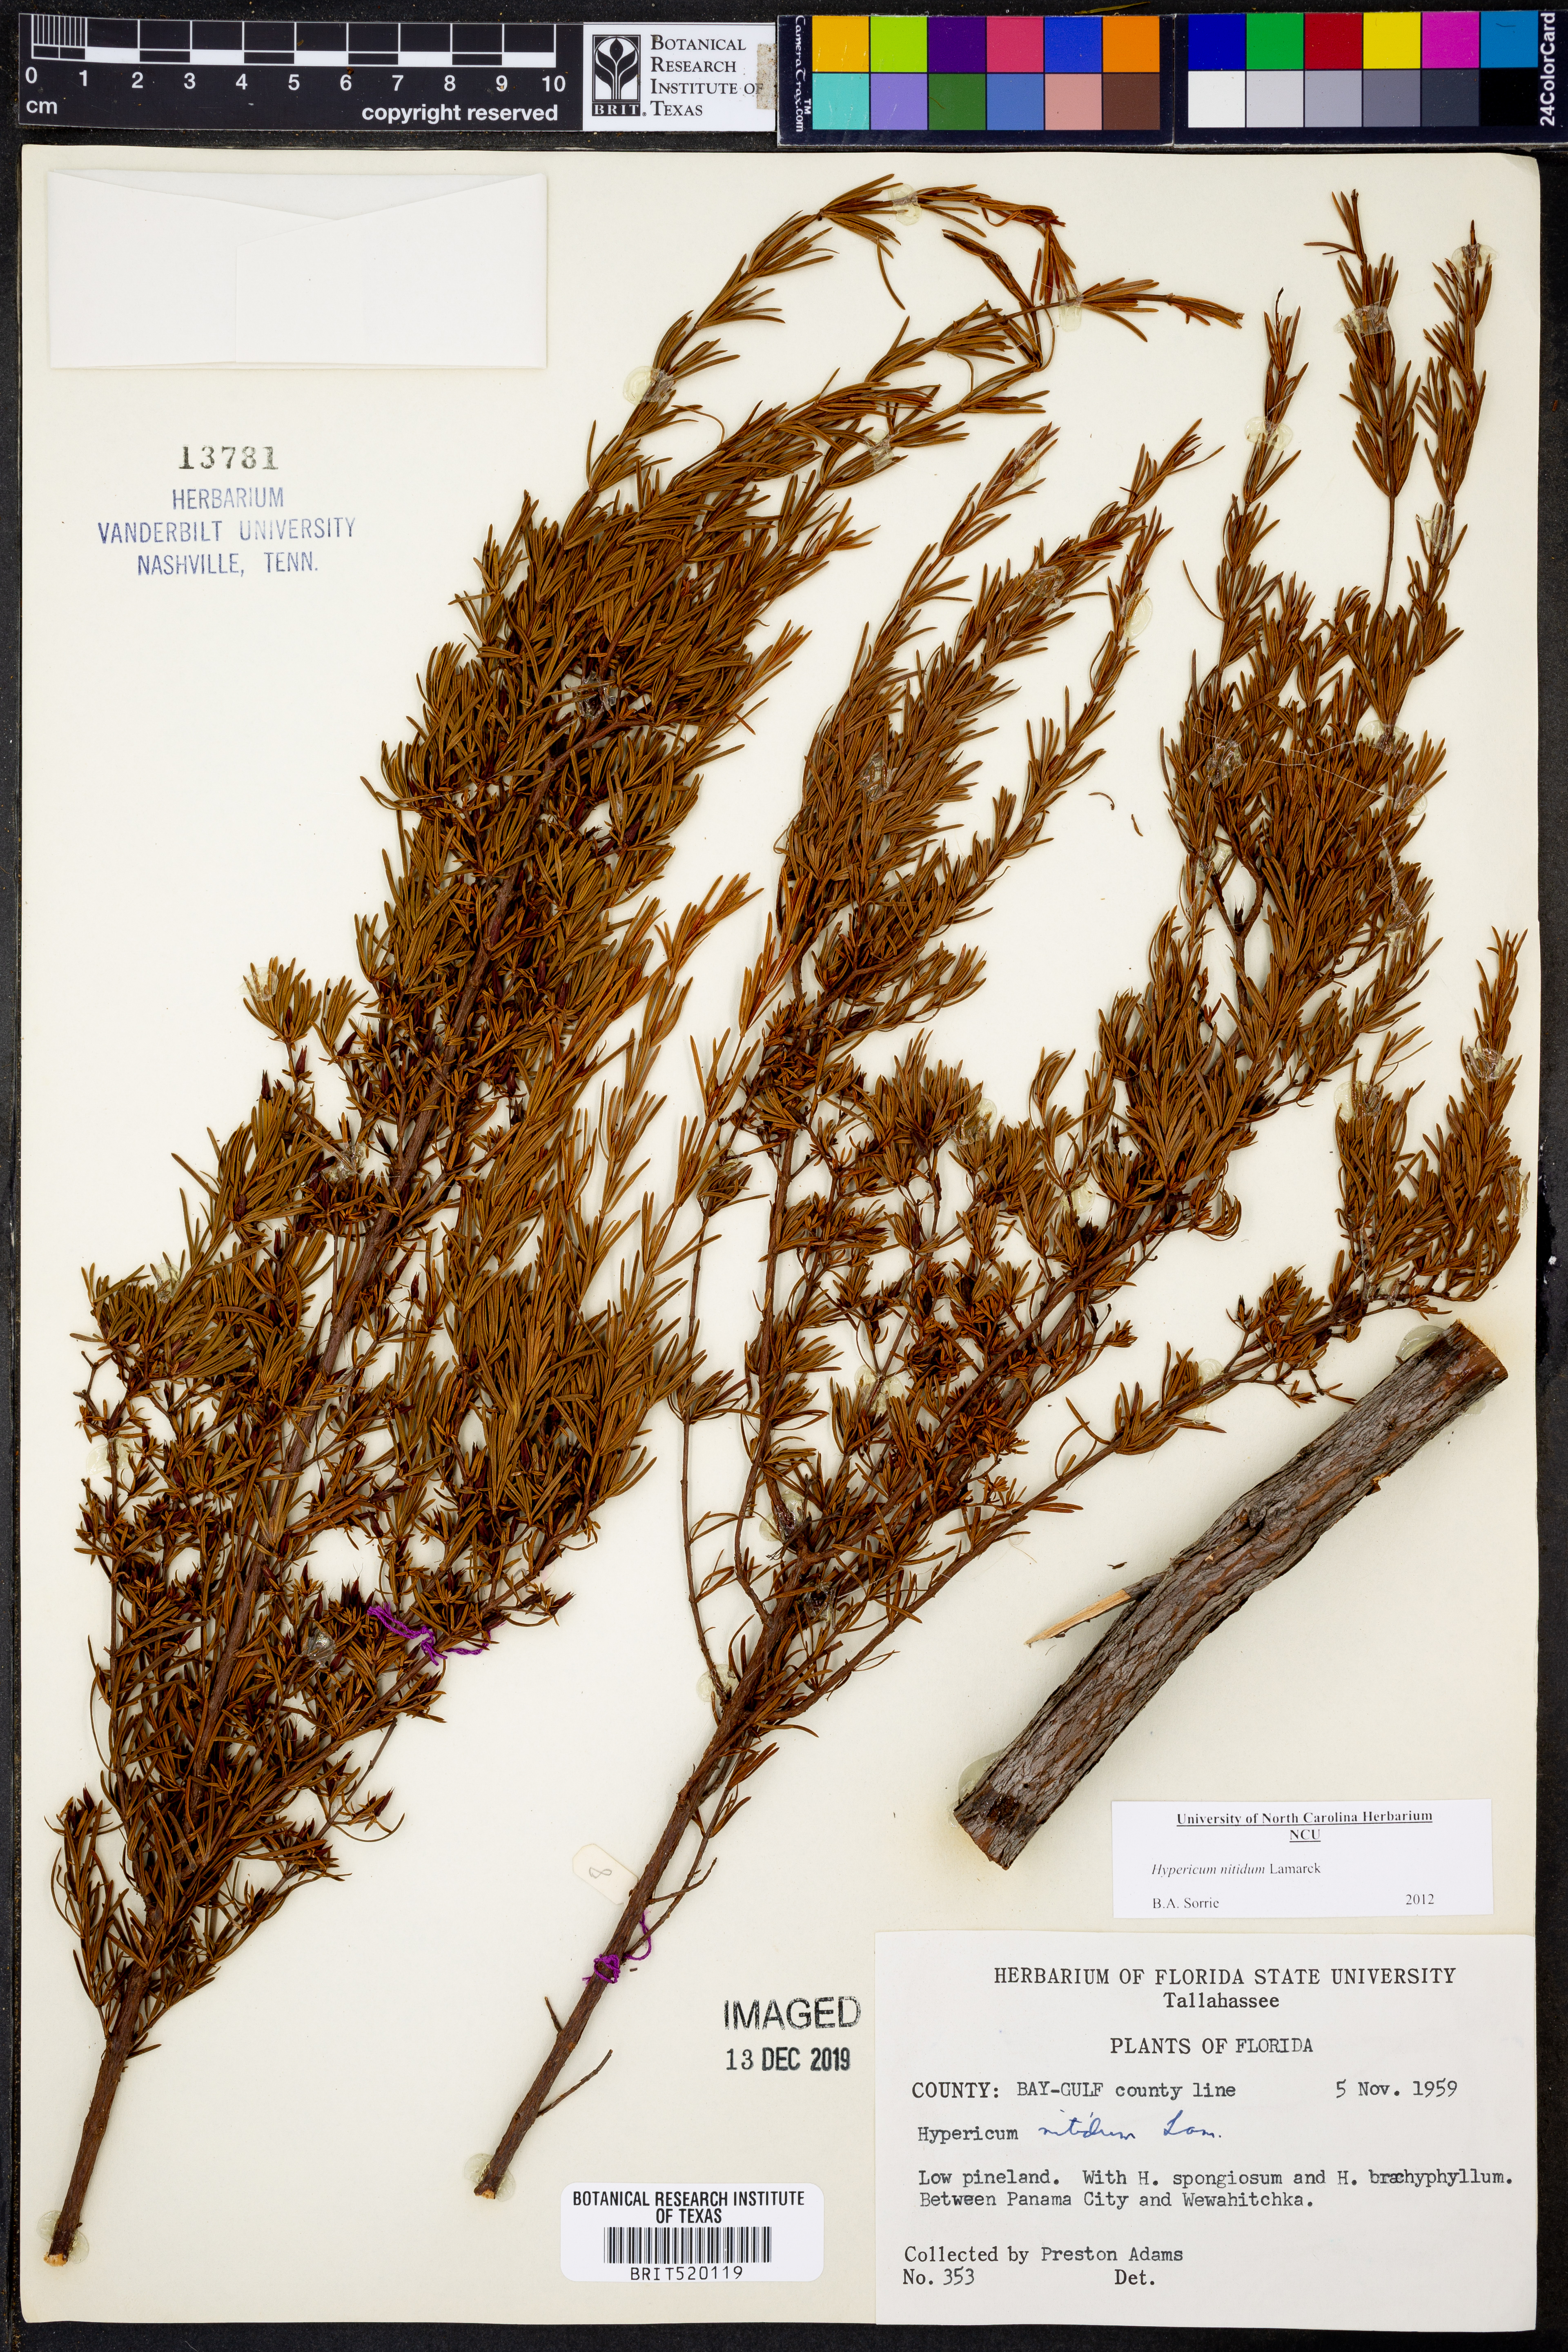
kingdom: Plantae
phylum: Tracheophyta
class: Magnoliopsida
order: Malpighiales
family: Hypericaceae
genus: Hypericum
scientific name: Hypericum nitidum
